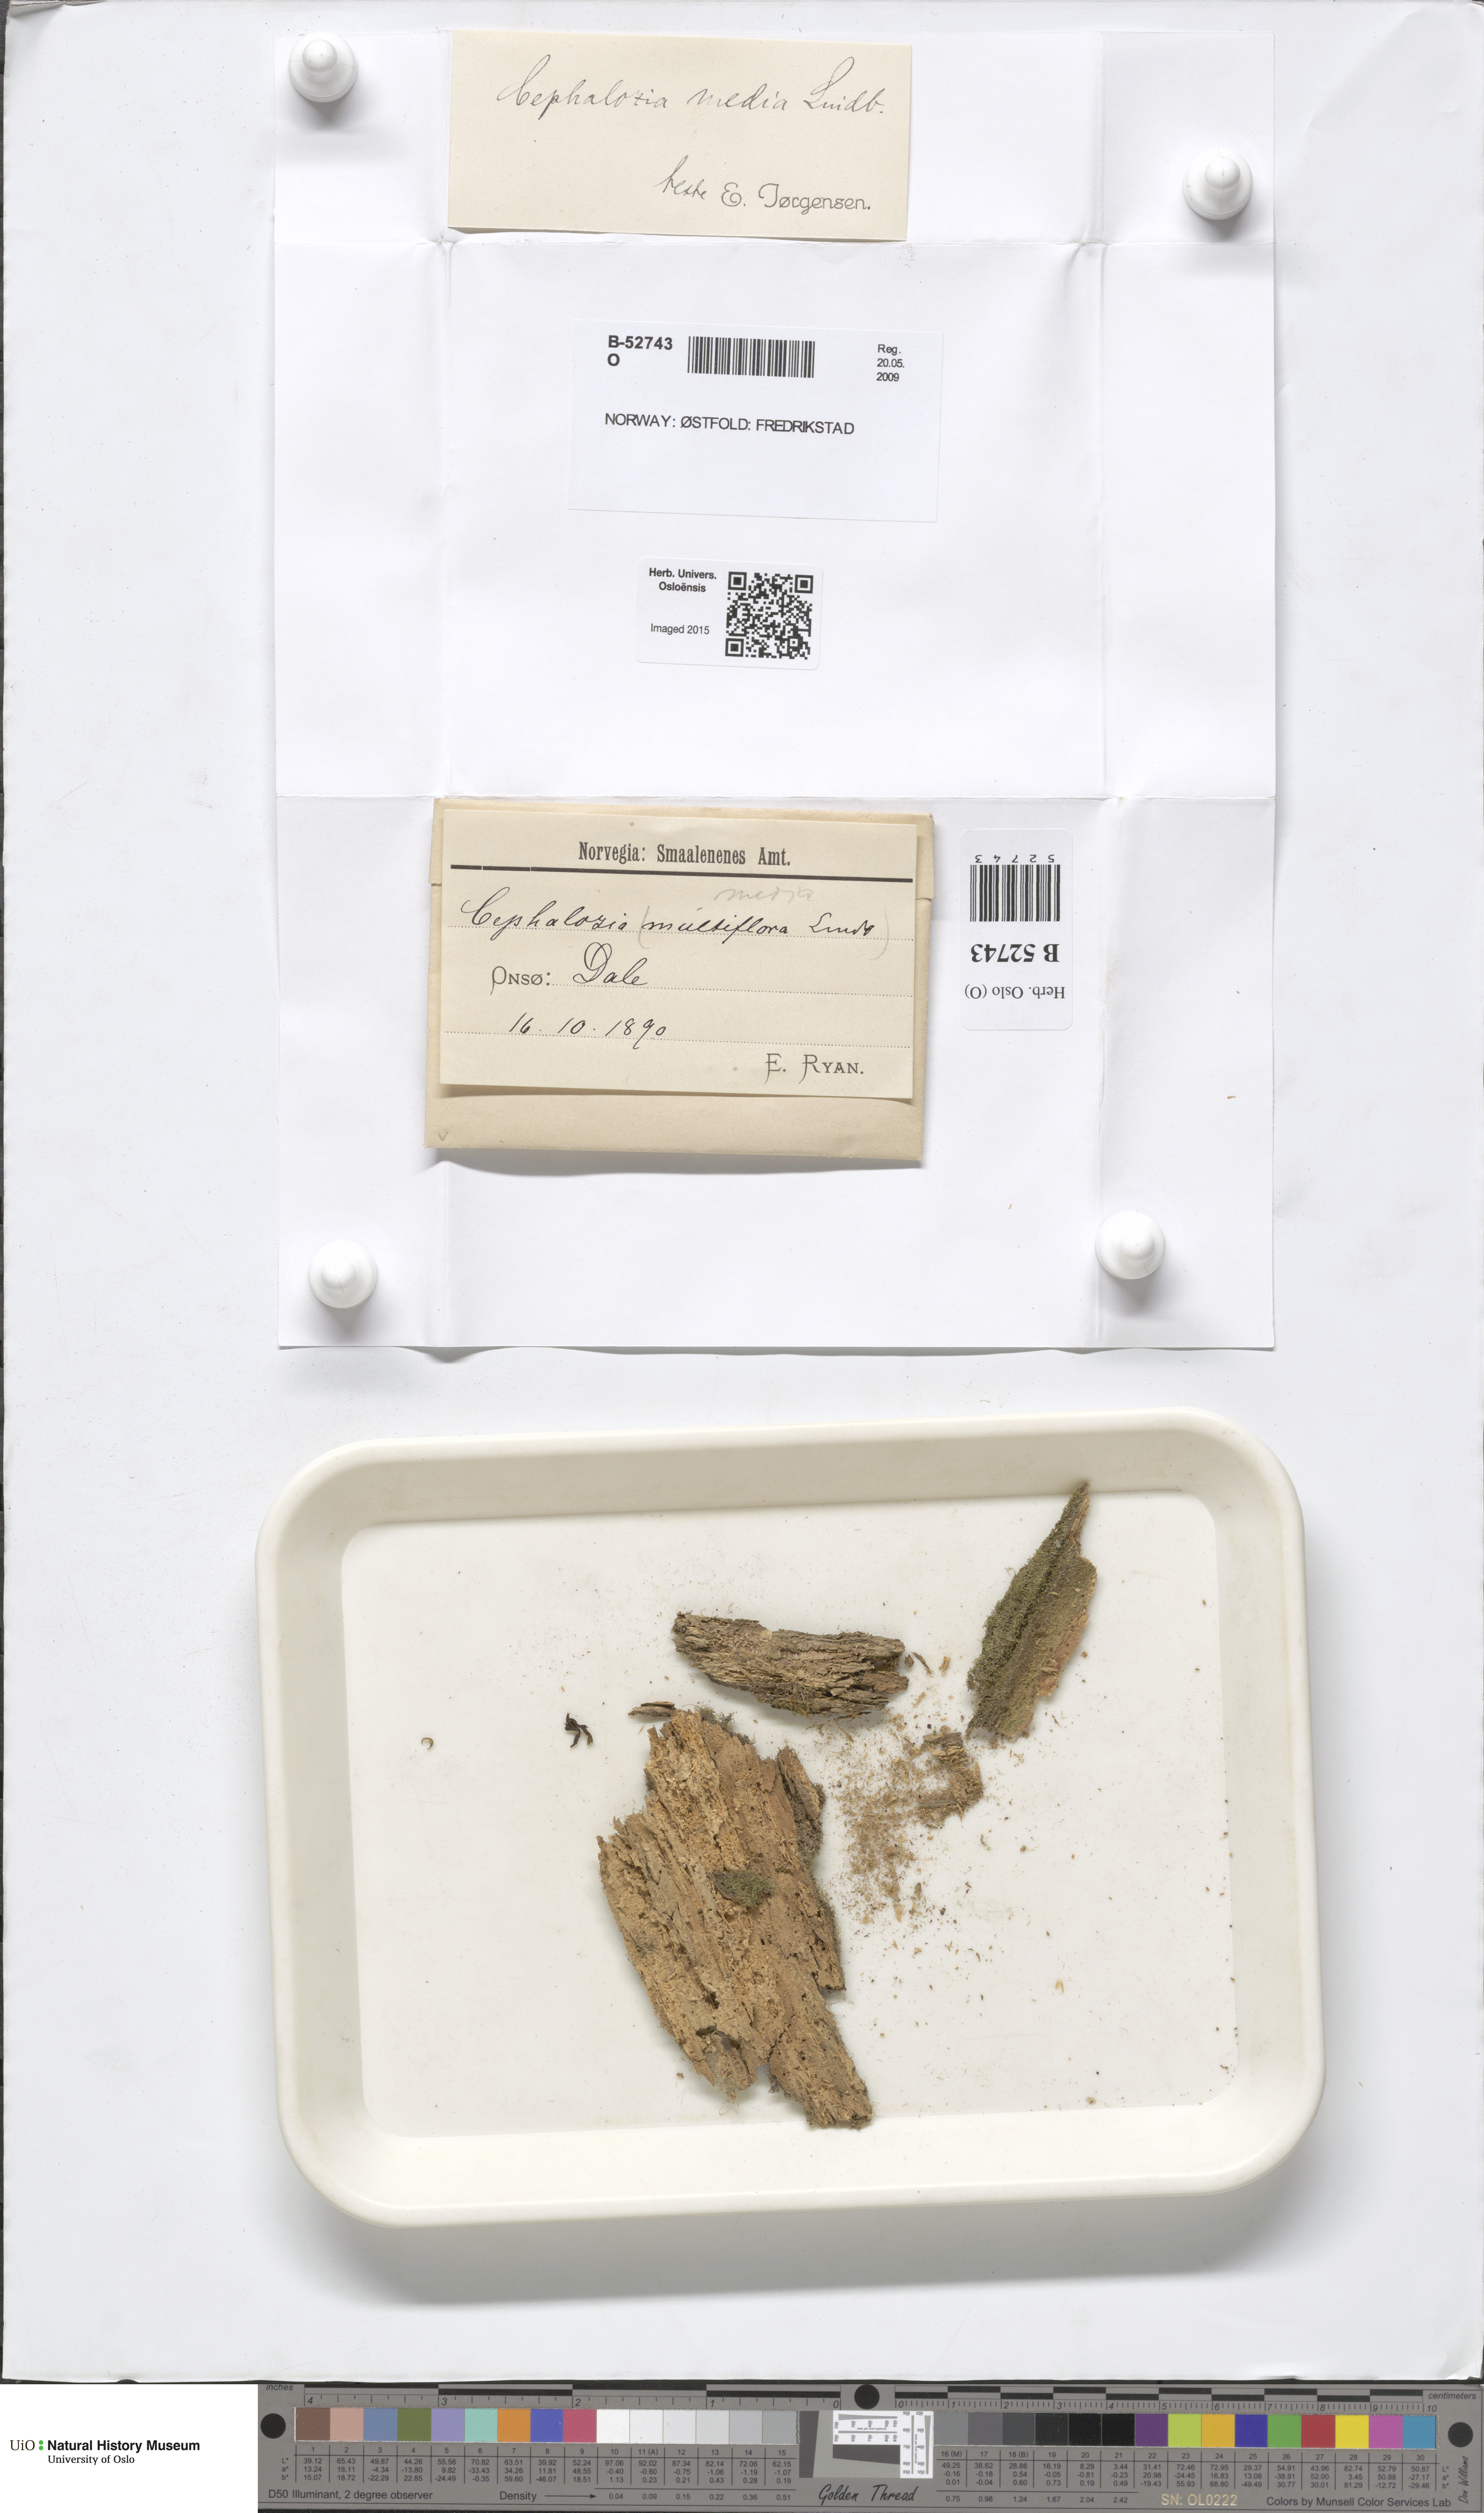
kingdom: Plantae
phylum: Marchantiophyta
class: Jungermanniopsida
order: Jungermanniales
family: Cephaloziaceae
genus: Fuscocephaloziopsis
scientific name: Fuscocephaloziopsis lunulifolia
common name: Moon-leaved pincerwort
